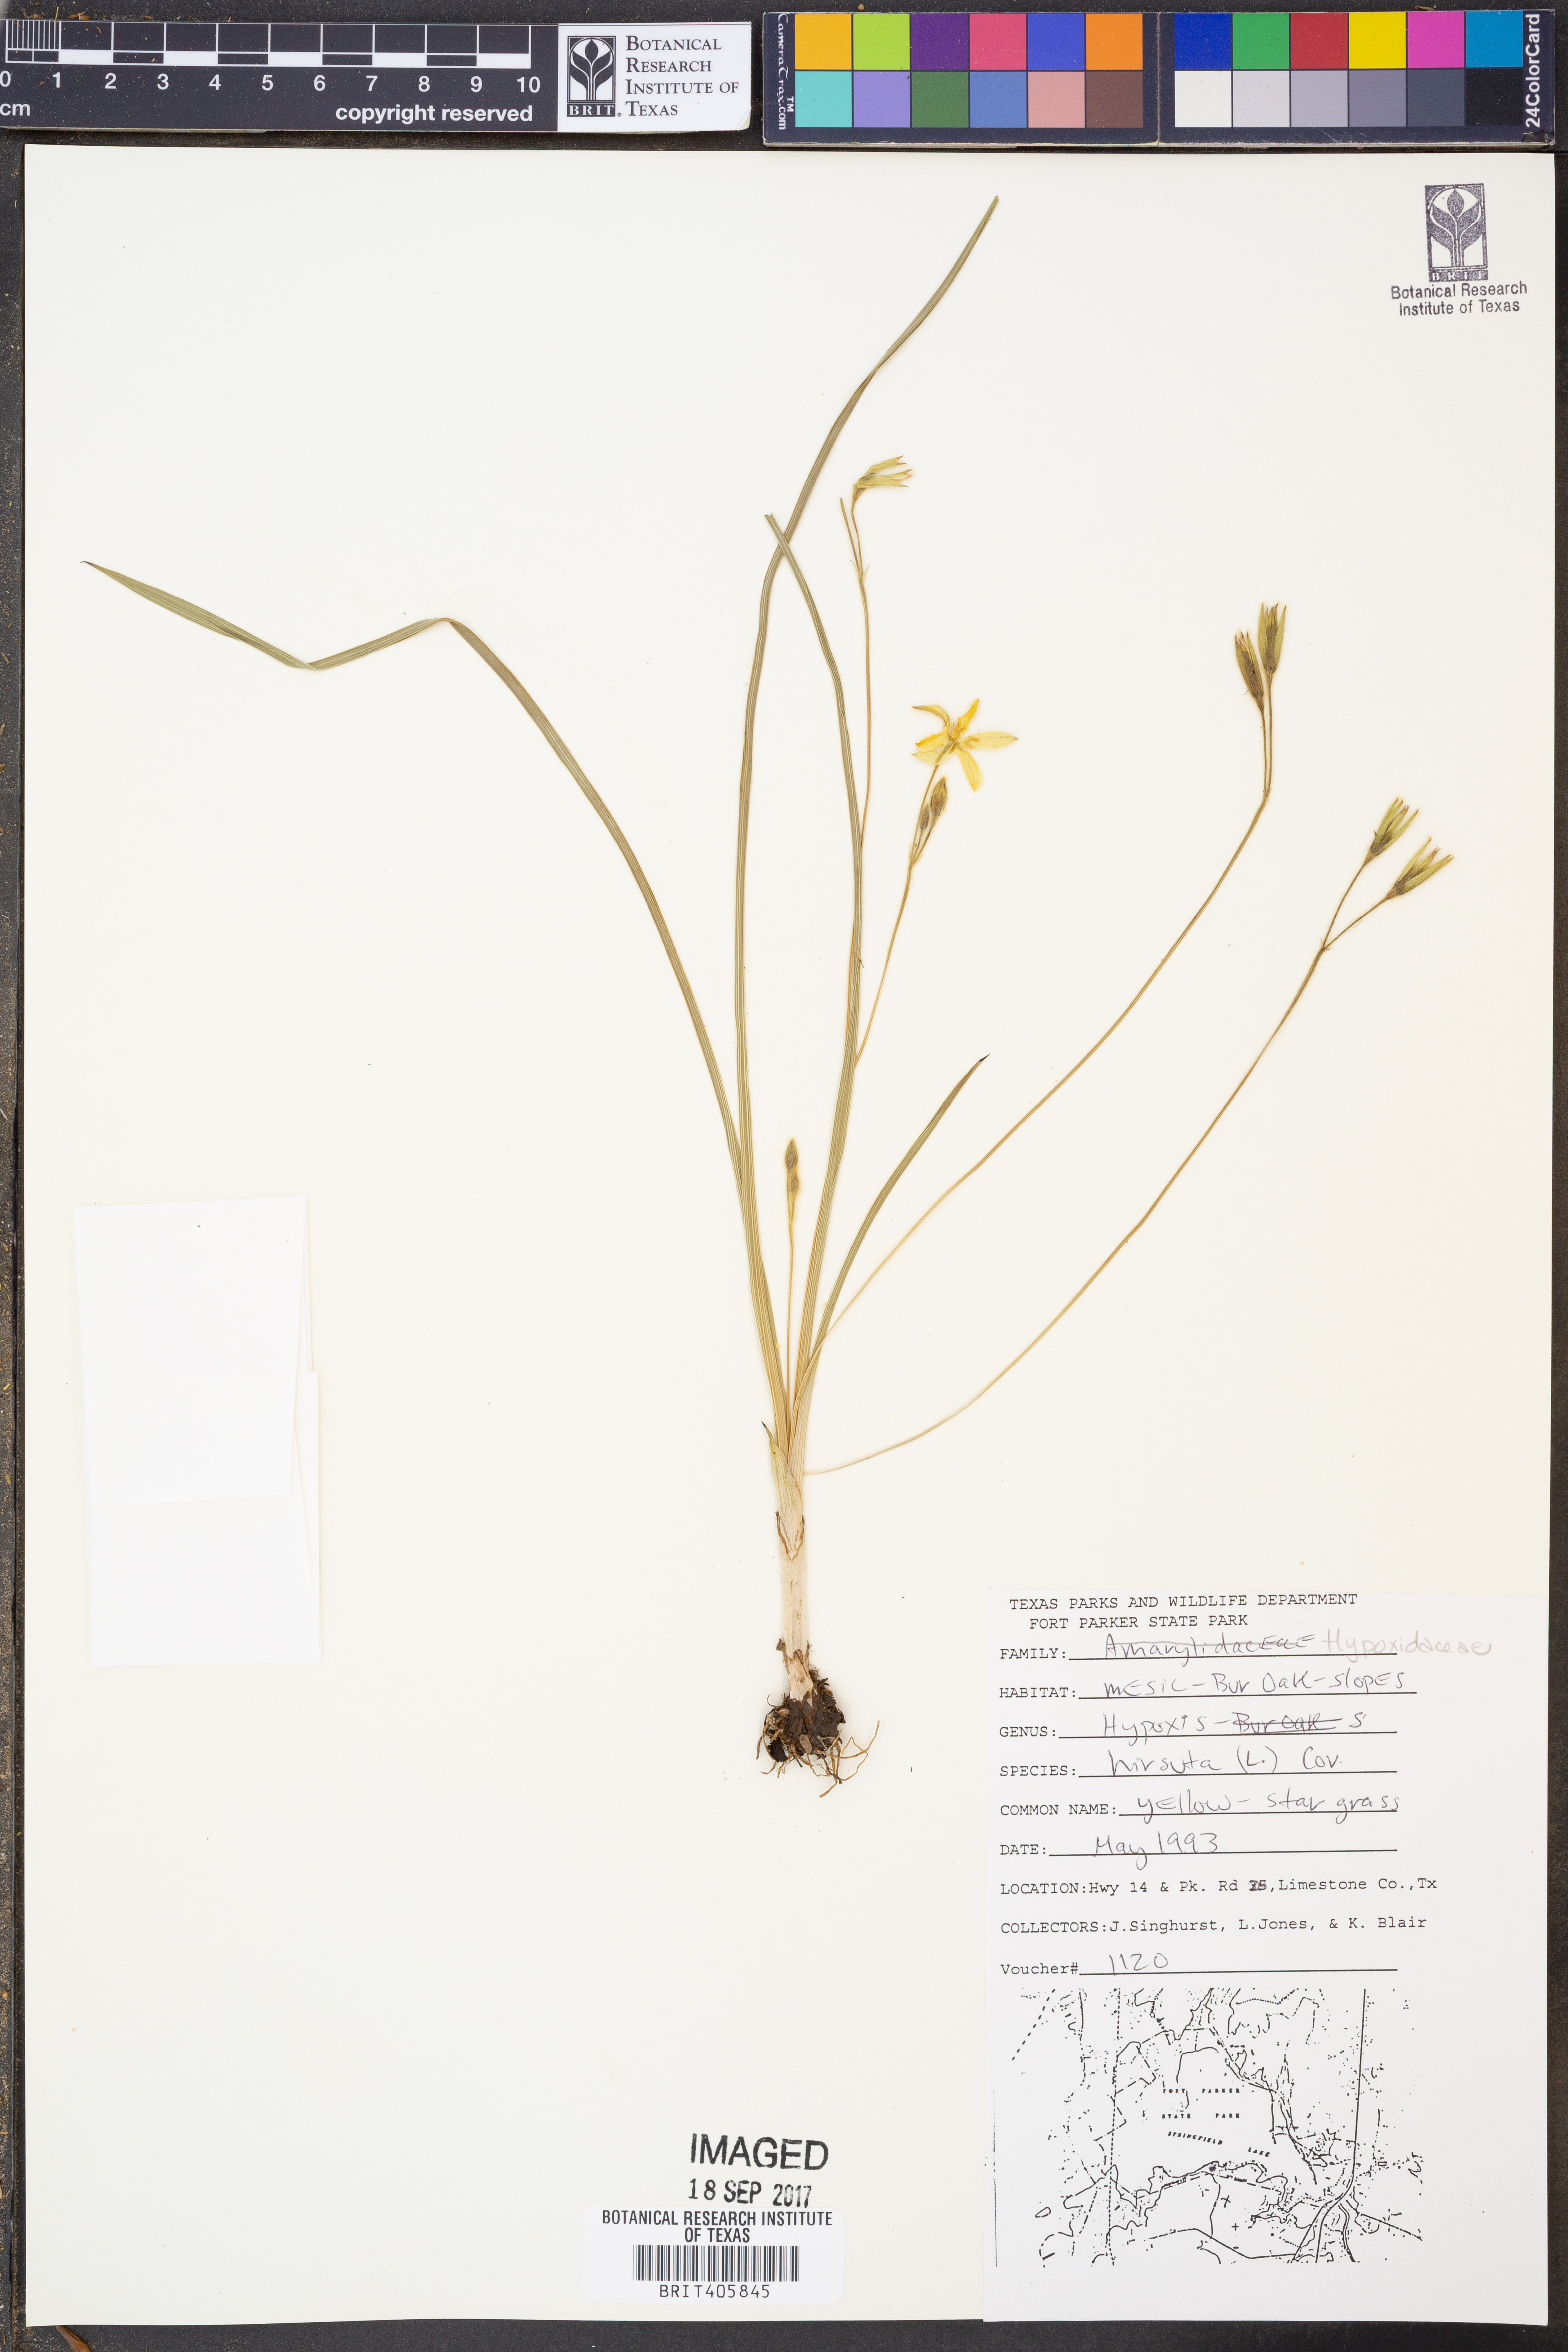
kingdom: Plantae
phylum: Tracheophyta
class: Liliopsida
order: Asparagales
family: Hypoxidaceae
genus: Hypoxis
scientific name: Hypoxis hirsuta
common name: Common goldstar
